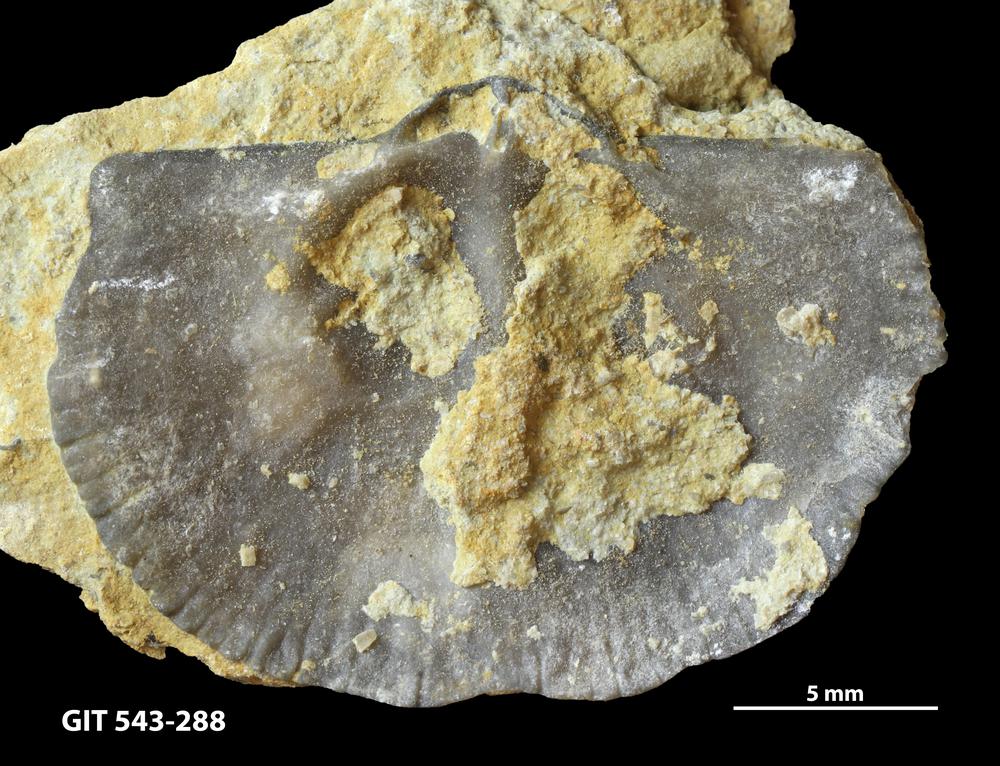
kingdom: Animalia
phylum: Brachiopoda
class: Rhynchonellata
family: Clitambonitidae
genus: Ilmarinia
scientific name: Ilmarinia
